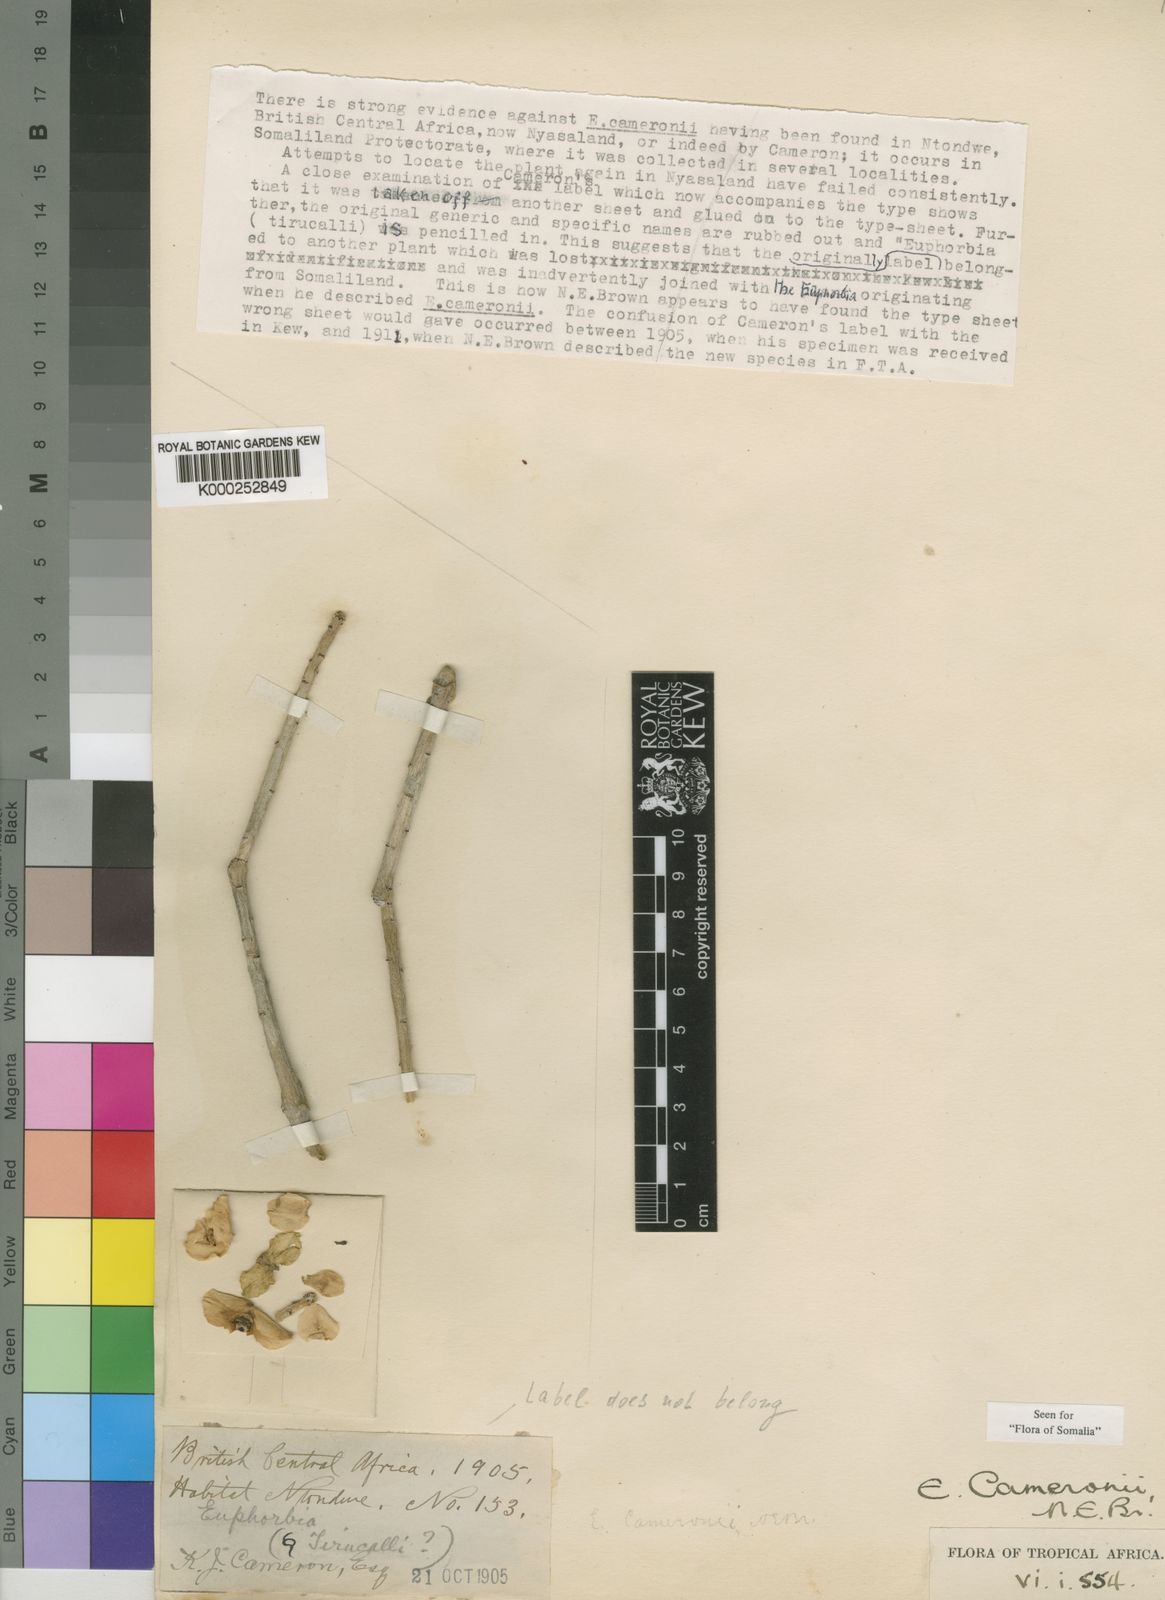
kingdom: Plantae
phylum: Tracheophyta
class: Magnoliopsida
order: Malpighiales
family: Euphorbiaceae
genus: Euphorbia
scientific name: Euphorbia cameronii
